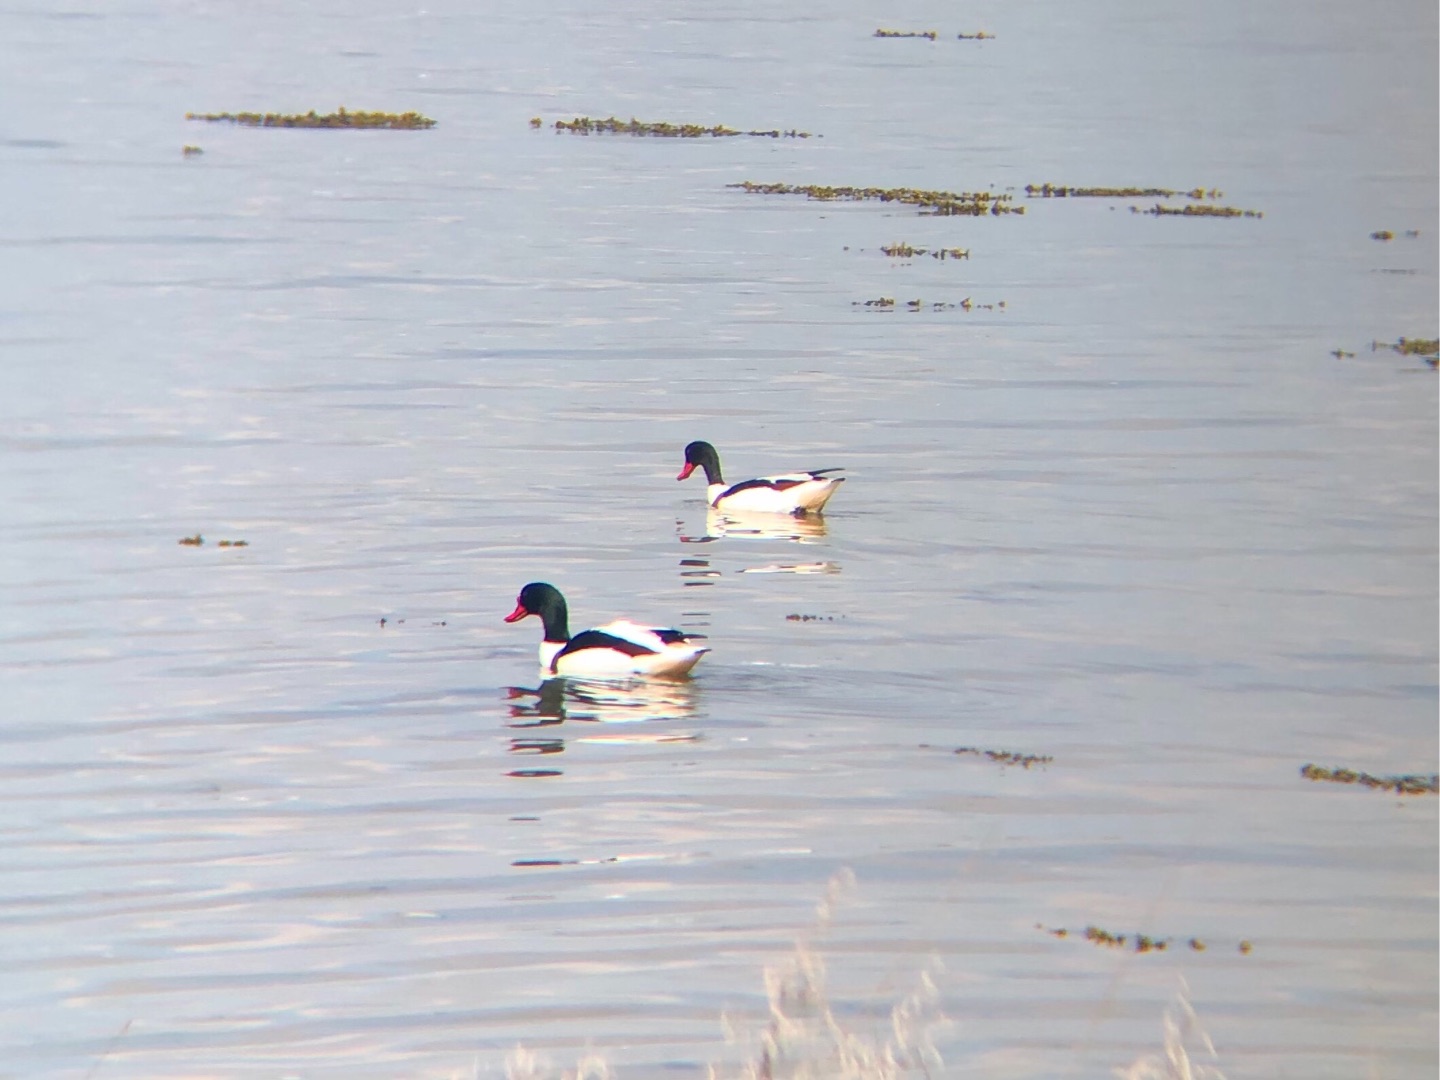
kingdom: Animalia
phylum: Chordata
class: Aves
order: Anseriformes
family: Anatidae
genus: Tadorna
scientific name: Tadorna tadorna
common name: Gravand
